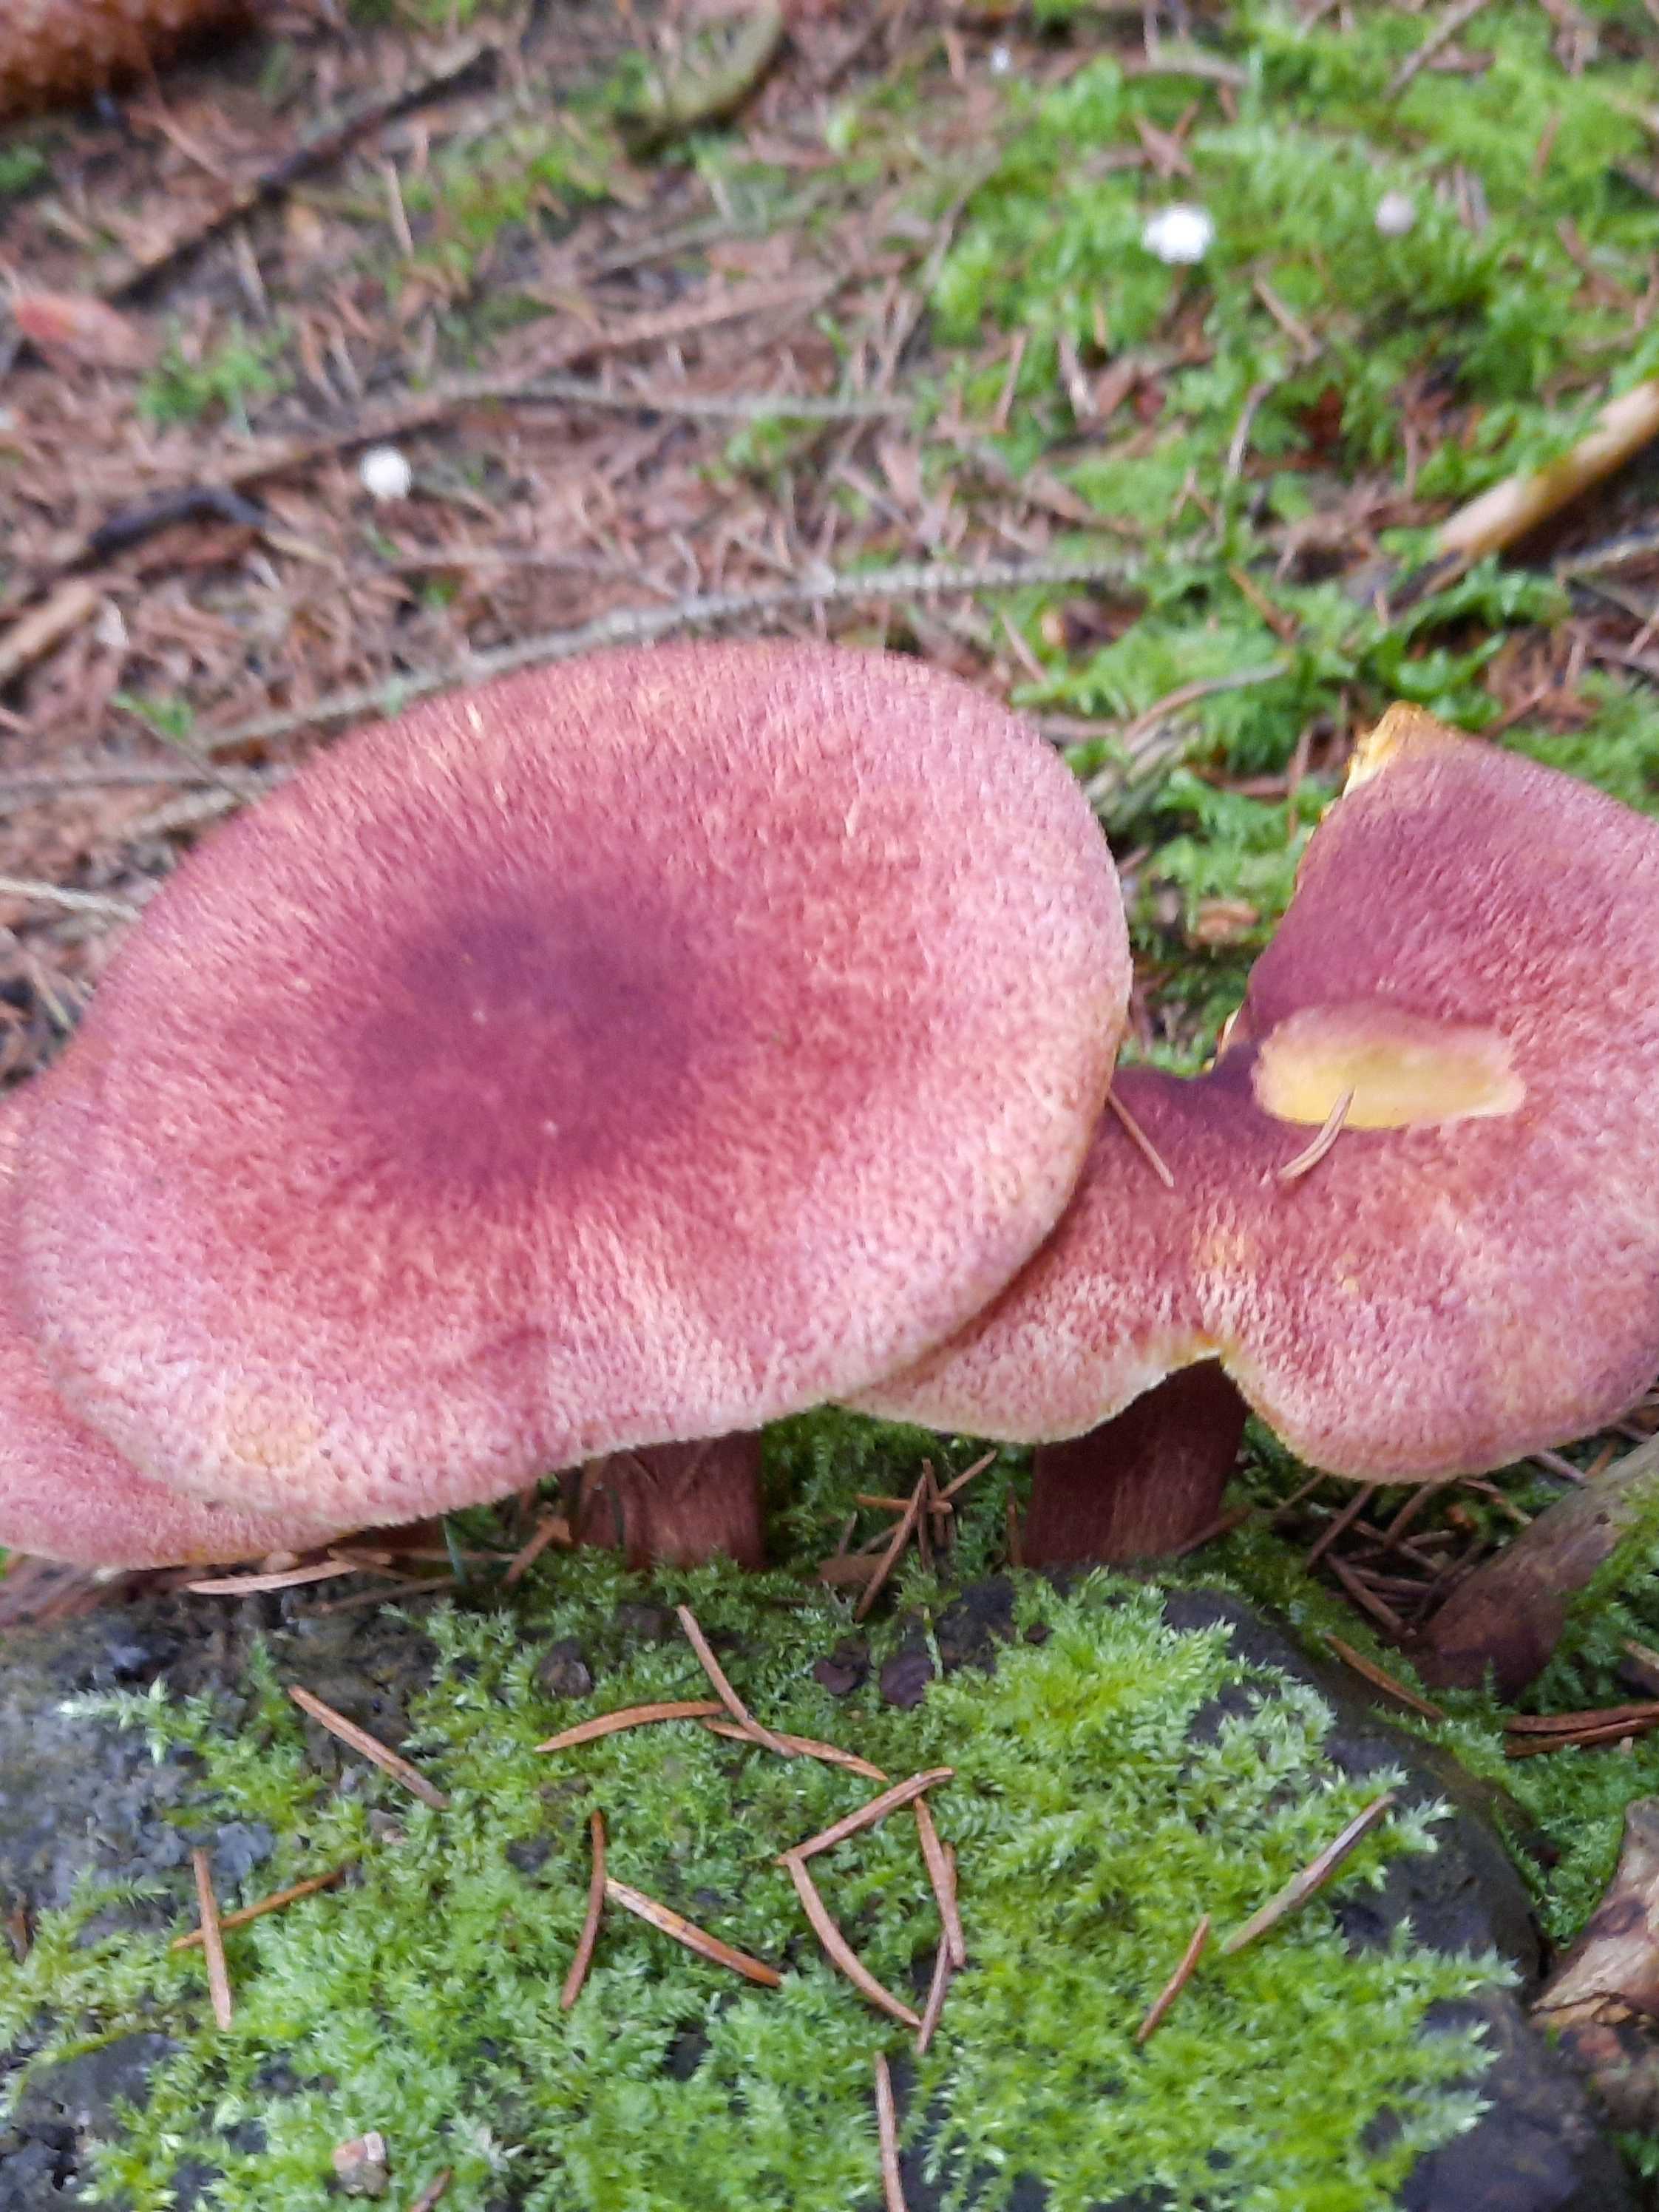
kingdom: Fungi
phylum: Basidiomycota
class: Agaricomycetes
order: Agaricales
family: Tricholomataceae
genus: Tricholomopsis
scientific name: Tricholomopsis rutilans
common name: purpur-væbnerhat
